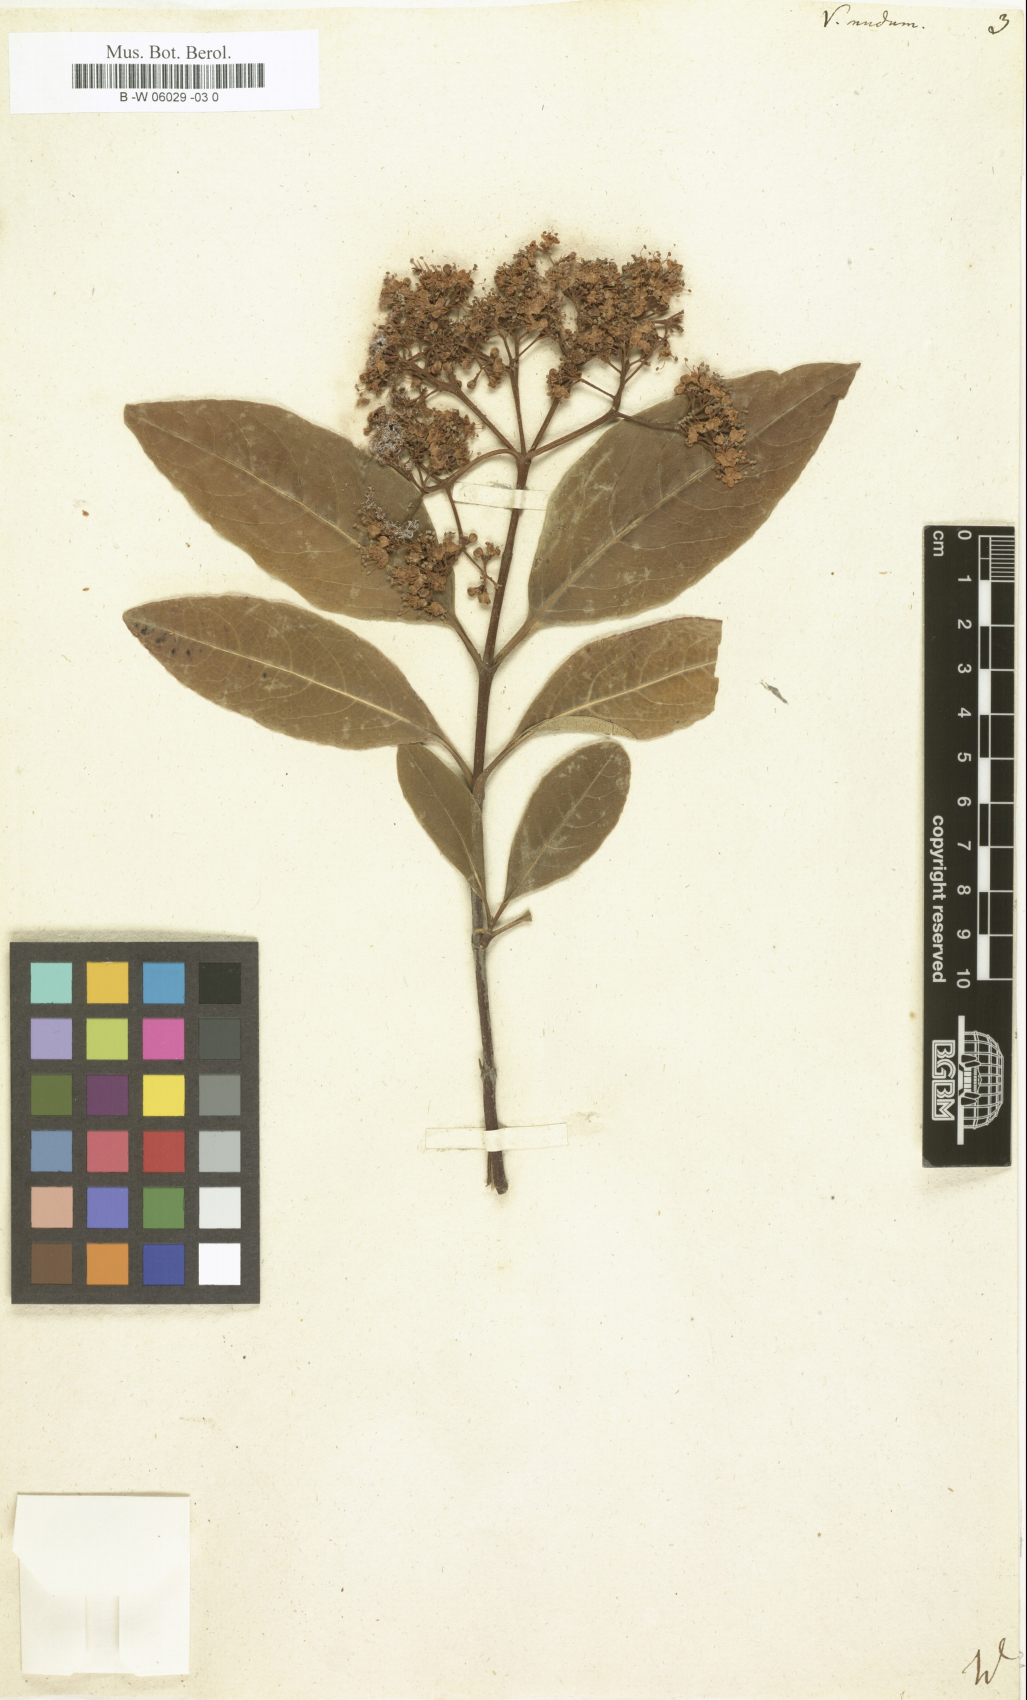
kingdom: Plantae
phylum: Tracheophyta
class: Magnoliopsida
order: Dipsacales
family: Viburnaceae
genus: Viburnum
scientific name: Viburnum nudum
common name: Possum haw
